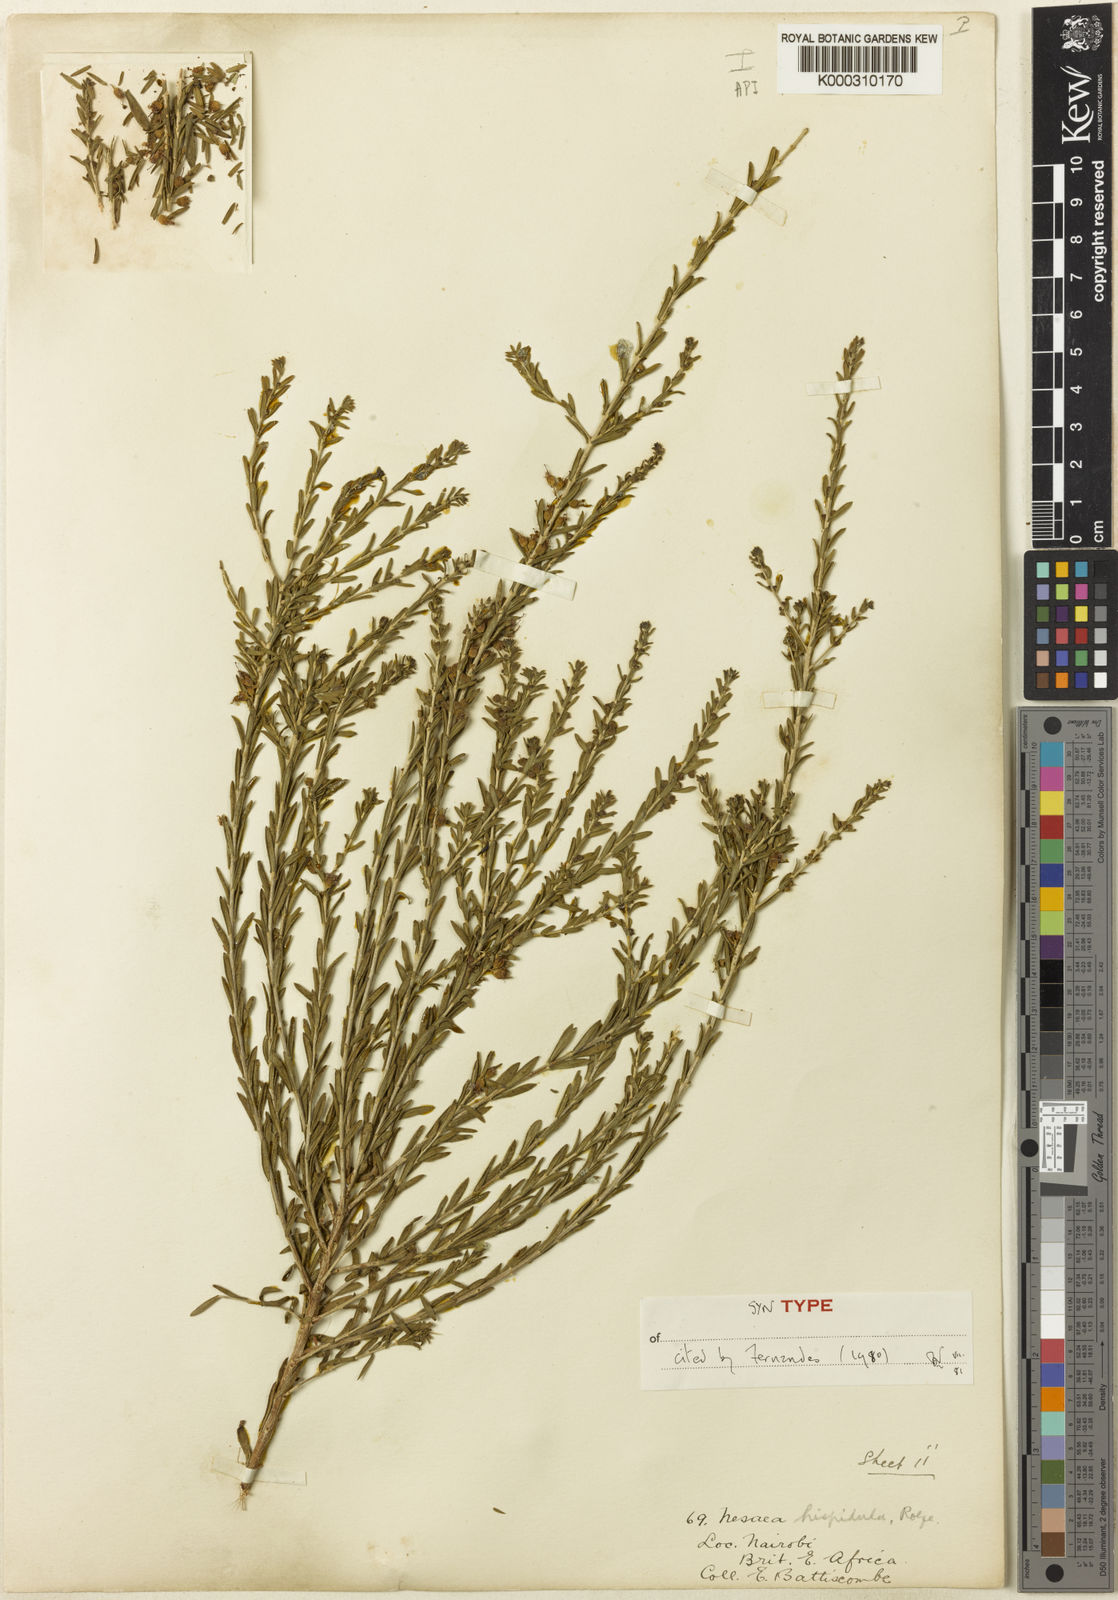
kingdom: Plantae
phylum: Tracheophyta
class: Magnoliopsida
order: Myrtales
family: Lythraceae
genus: Ammannia
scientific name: Ammannia kilimandscharica
